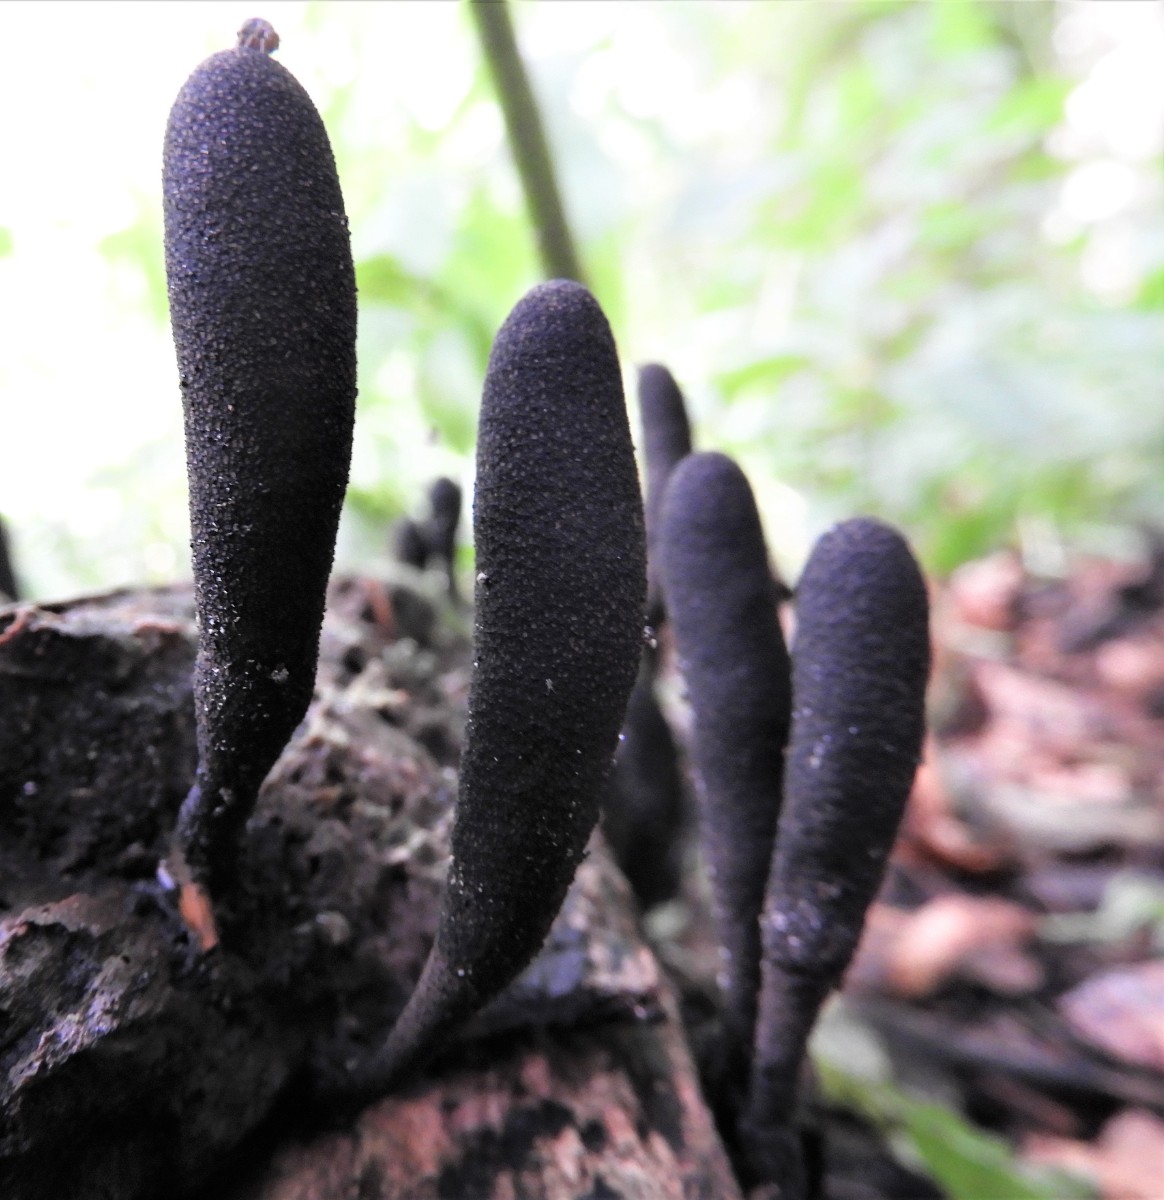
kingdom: Fungi
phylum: Ascomycota
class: Sordariomycetes
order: Xylariales
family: Xylariaceae
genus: Xylaria
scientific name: Xylaria longipes
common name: slank stødsvamp
